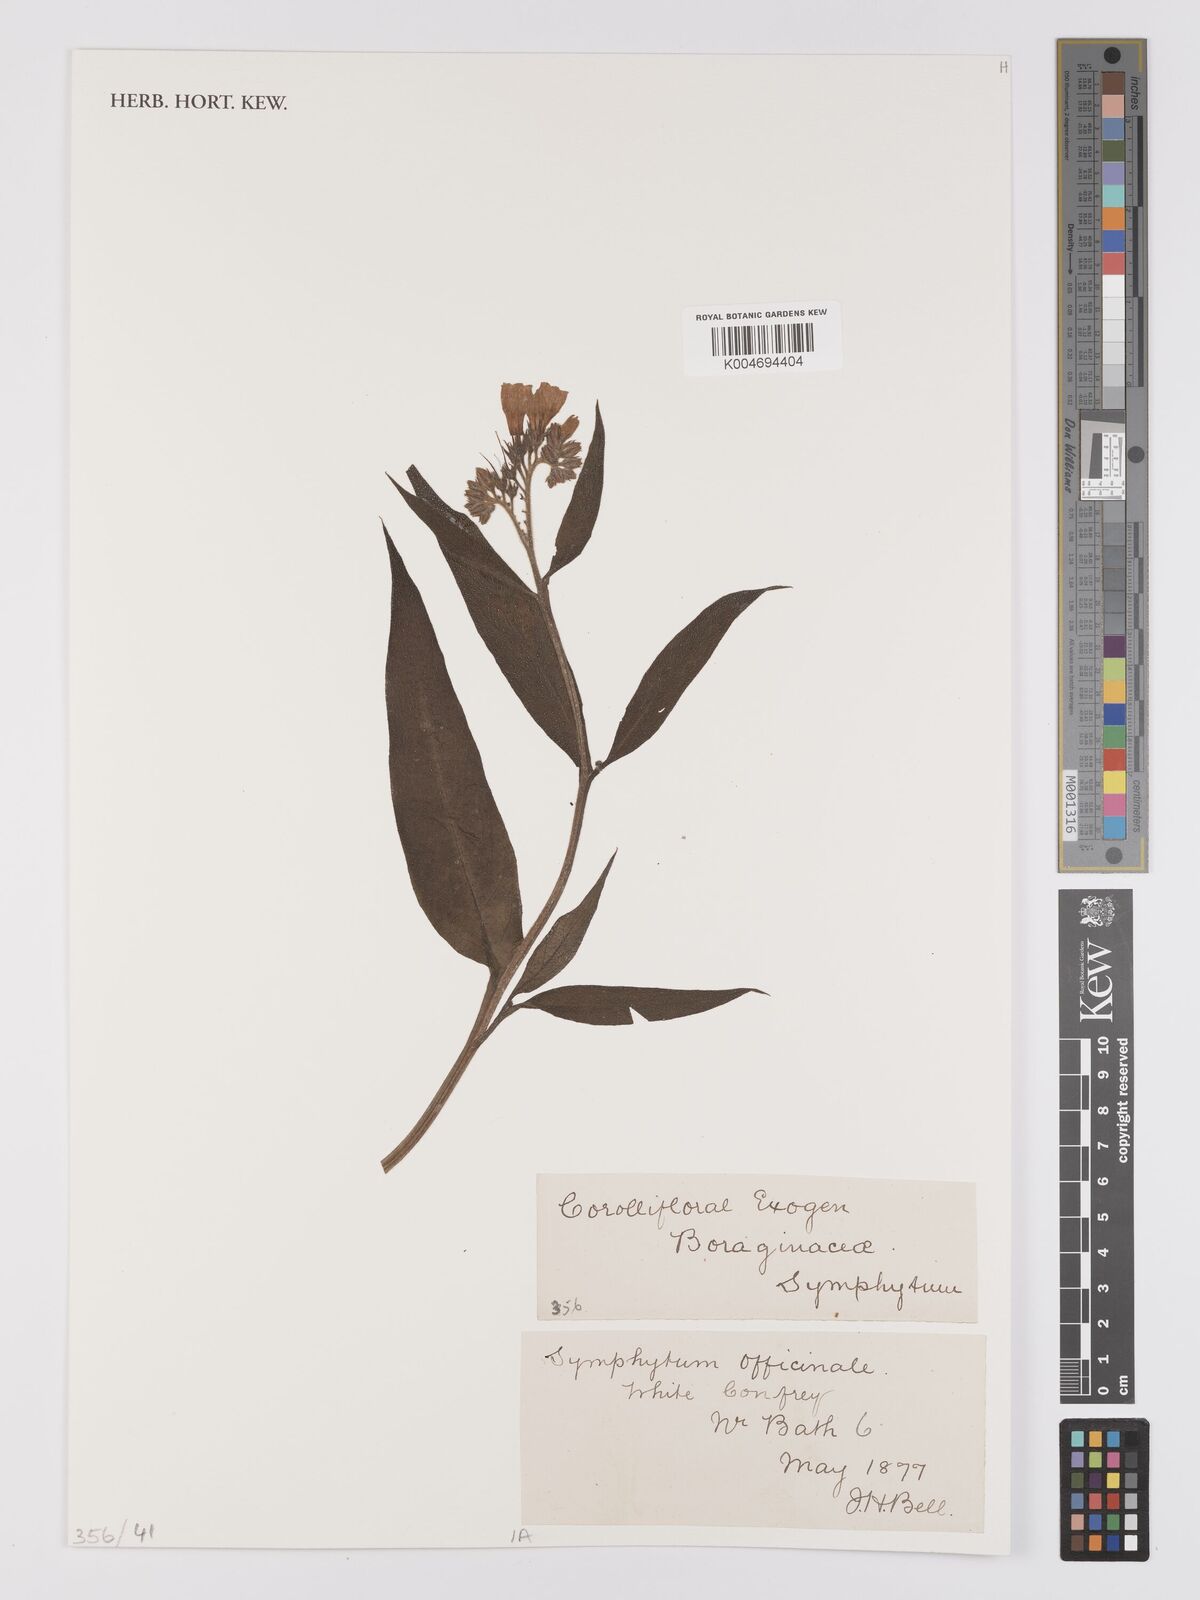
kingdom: Plantae
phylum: Tracheophyta
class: Magnoliopsida
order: Boraginales
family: Boraginaceae
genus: Symphytum
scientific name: Symphytum officinale
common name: Common comfrey
